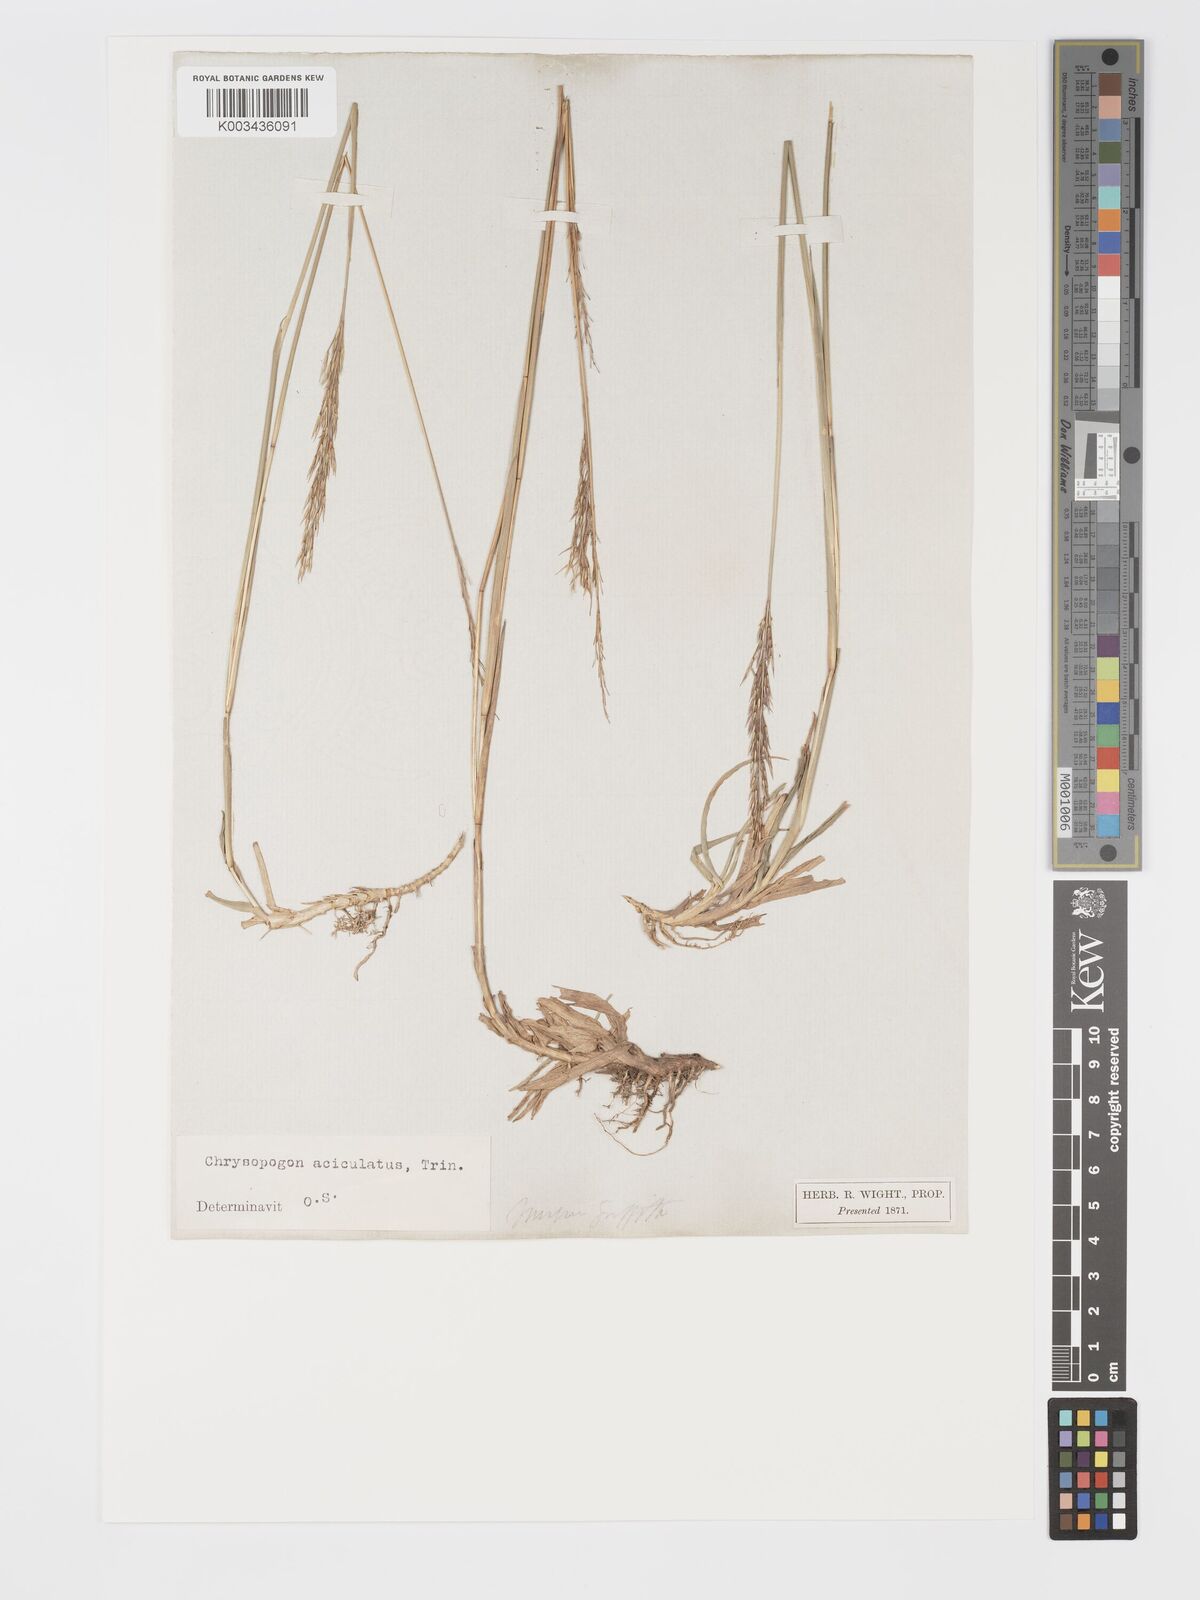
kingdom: Plantae
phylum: Tracheophyta
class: Liliopsida
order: Poales
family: Poaceae
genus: Chrysopogon
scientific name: Chrysopogon aciculatus
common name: Pilipiliula
